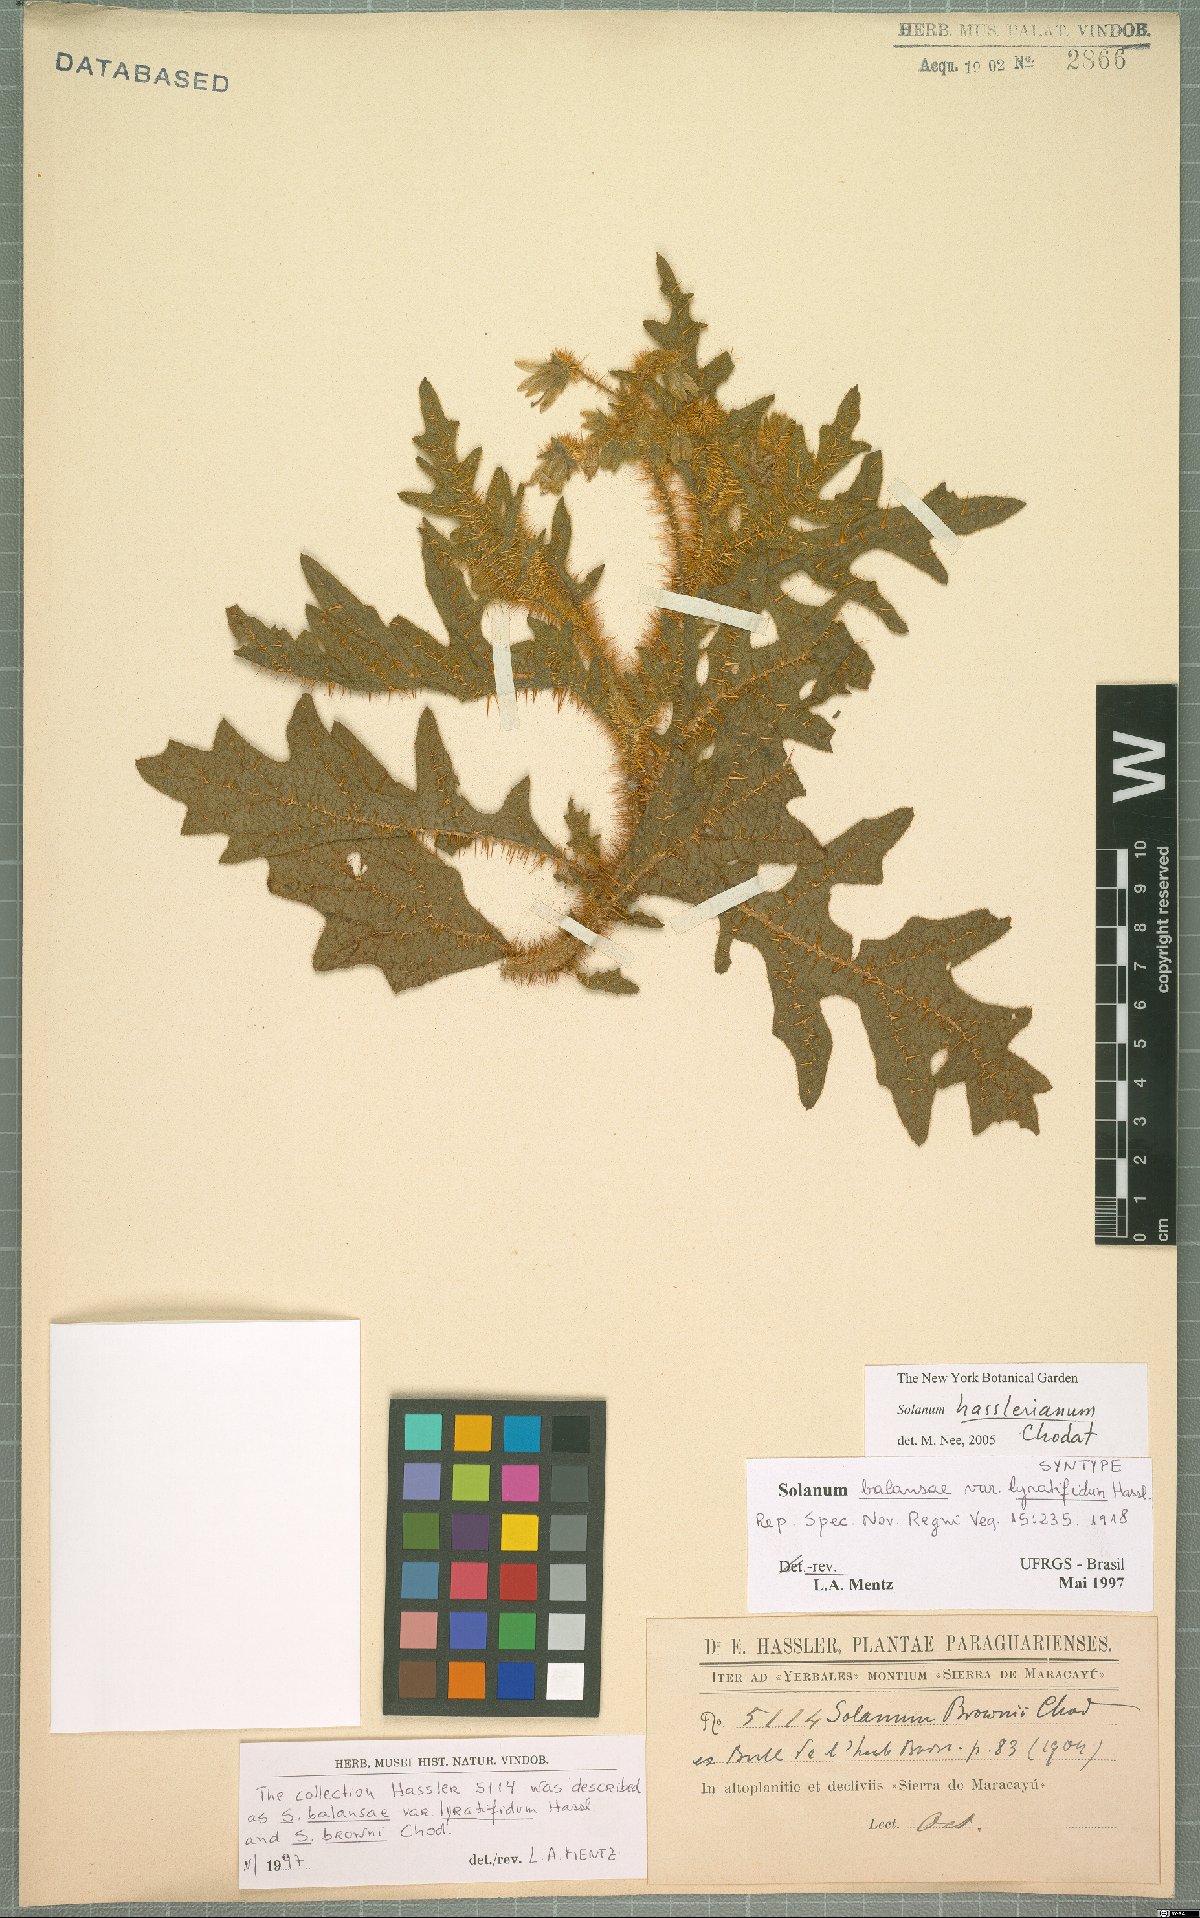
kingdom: Plantae
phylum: Tracheophyta
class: Magnoliopsida
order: Solanales
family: Solanaceae
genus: Solanum
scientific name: Solanum hasslerianum
